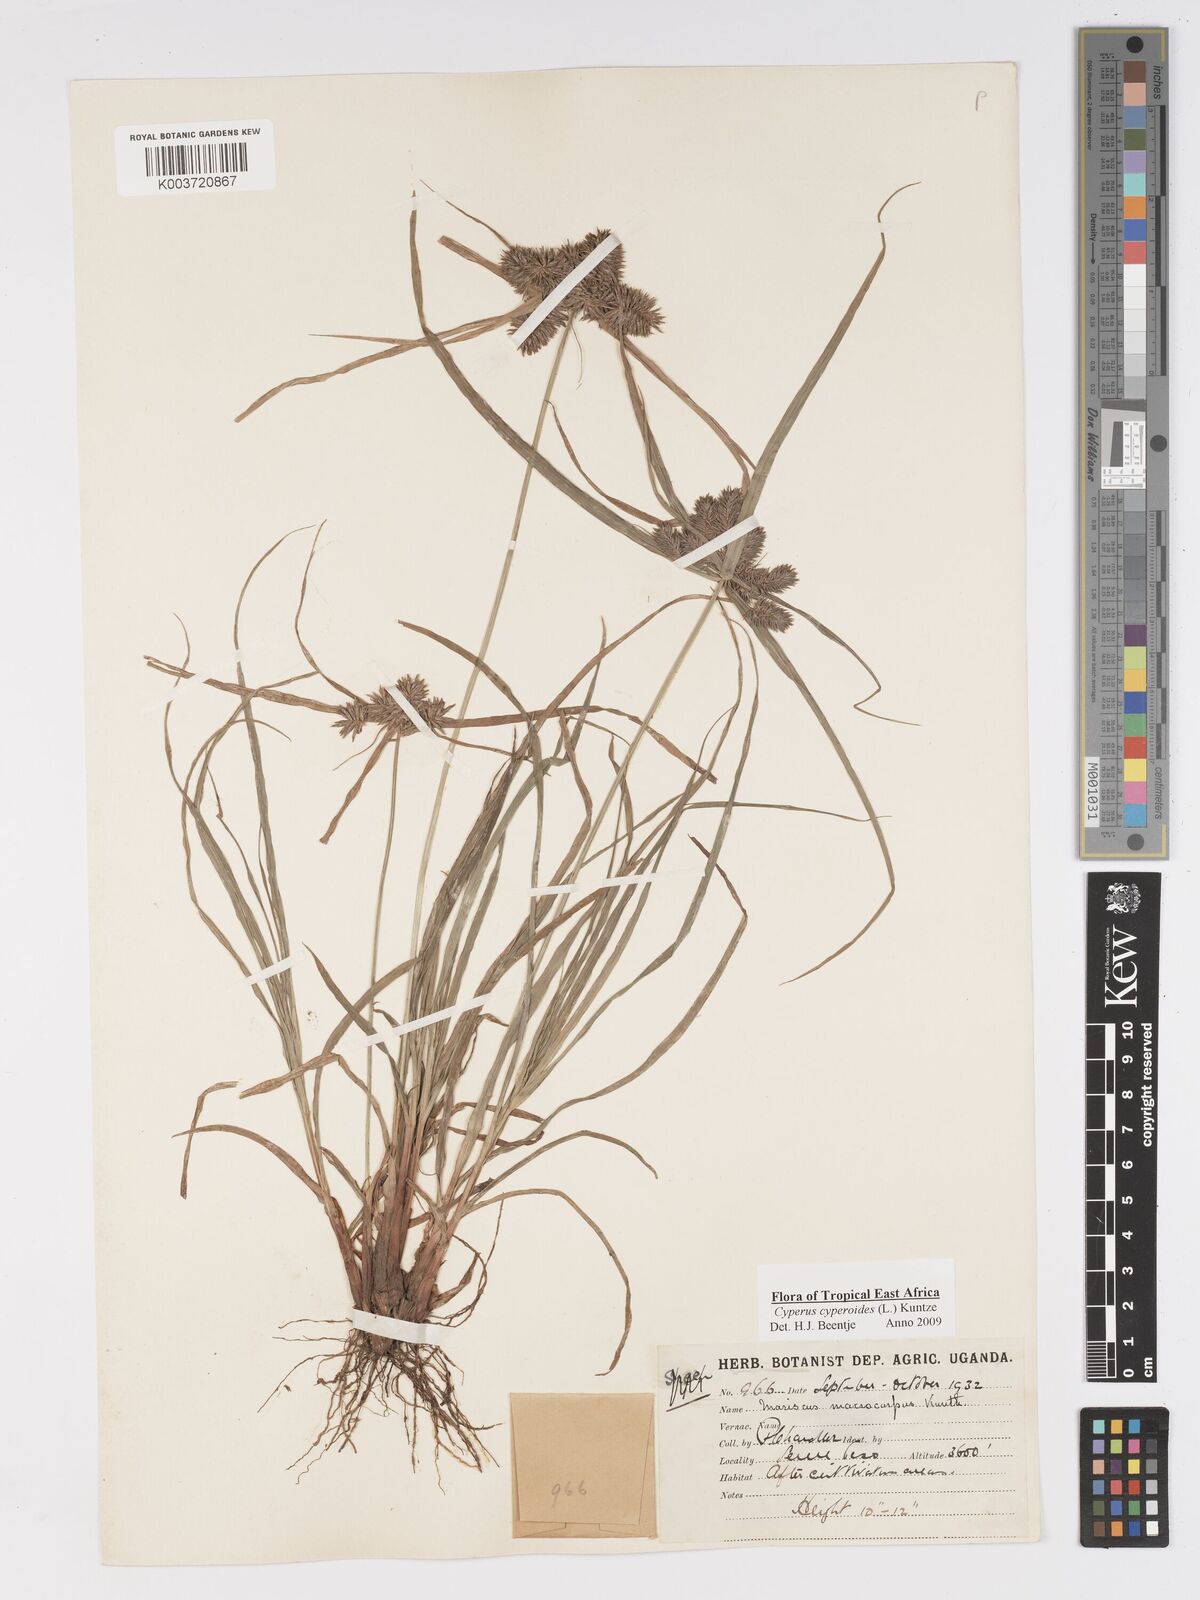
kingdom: Plantae
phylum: Tracheophyta
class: Liliopsida
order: Poales
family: Cyperaceae
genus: Cyperus
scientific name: Cyperus macrocarpus
